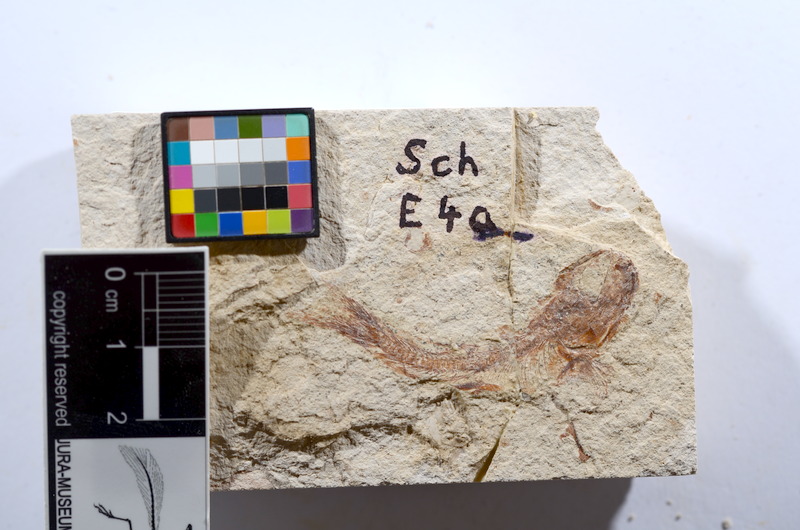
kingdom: Animalia
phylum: Chordata
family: Ascalaboidae
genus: Tharsis
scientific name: Tharsis dubius
